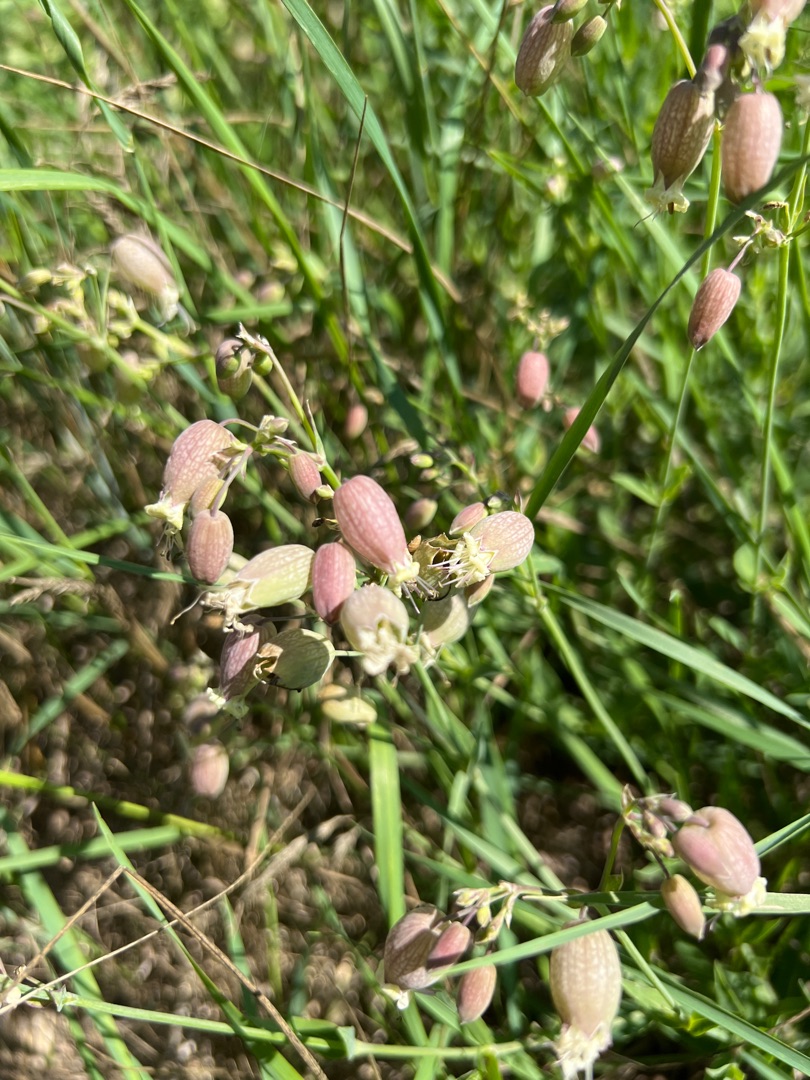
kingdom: Plantae
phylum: Tracheophyta
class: Magnoliopsida
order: Caryophyllales
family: Caryophyllaceae
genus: Silene
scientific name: Silene vulgaris
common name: Blæresmælde
